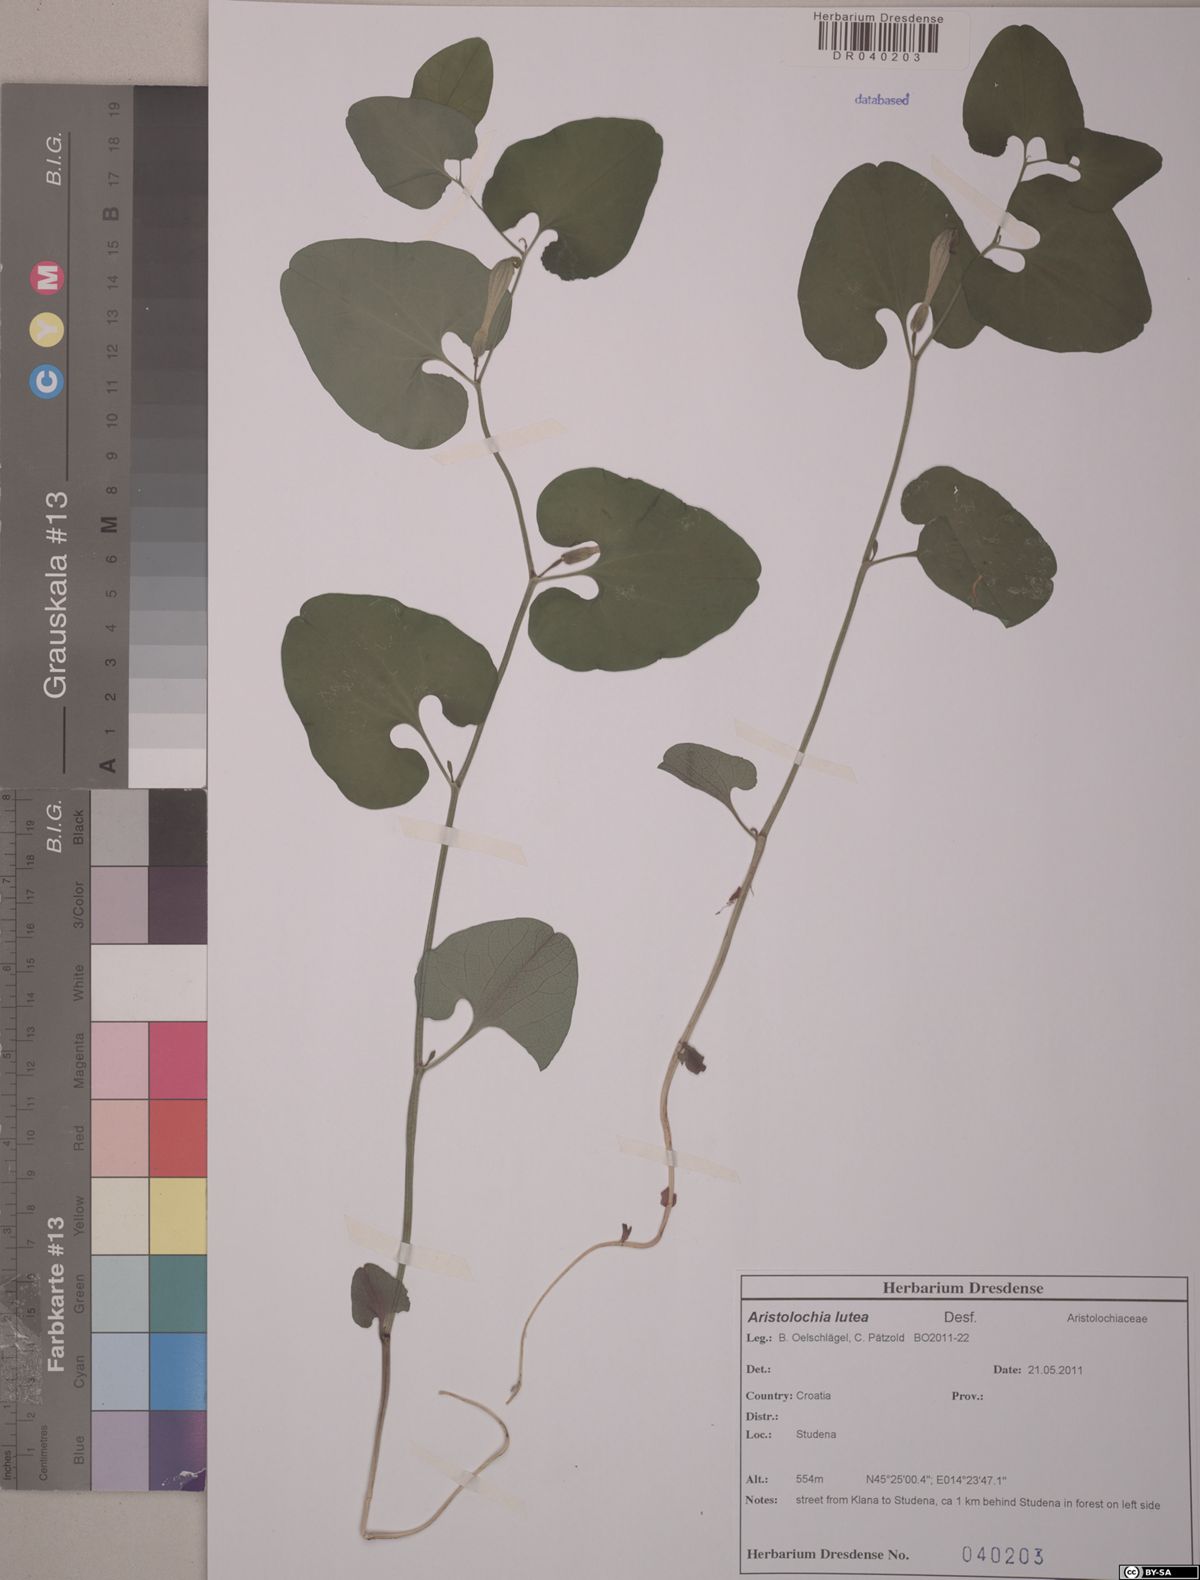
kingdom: Plantae
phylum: Tracheophyta
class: Magnoliopsida
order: Piperales
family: Aristolochiaceae
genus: Aristolochia
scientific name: Aristolochia lutea
